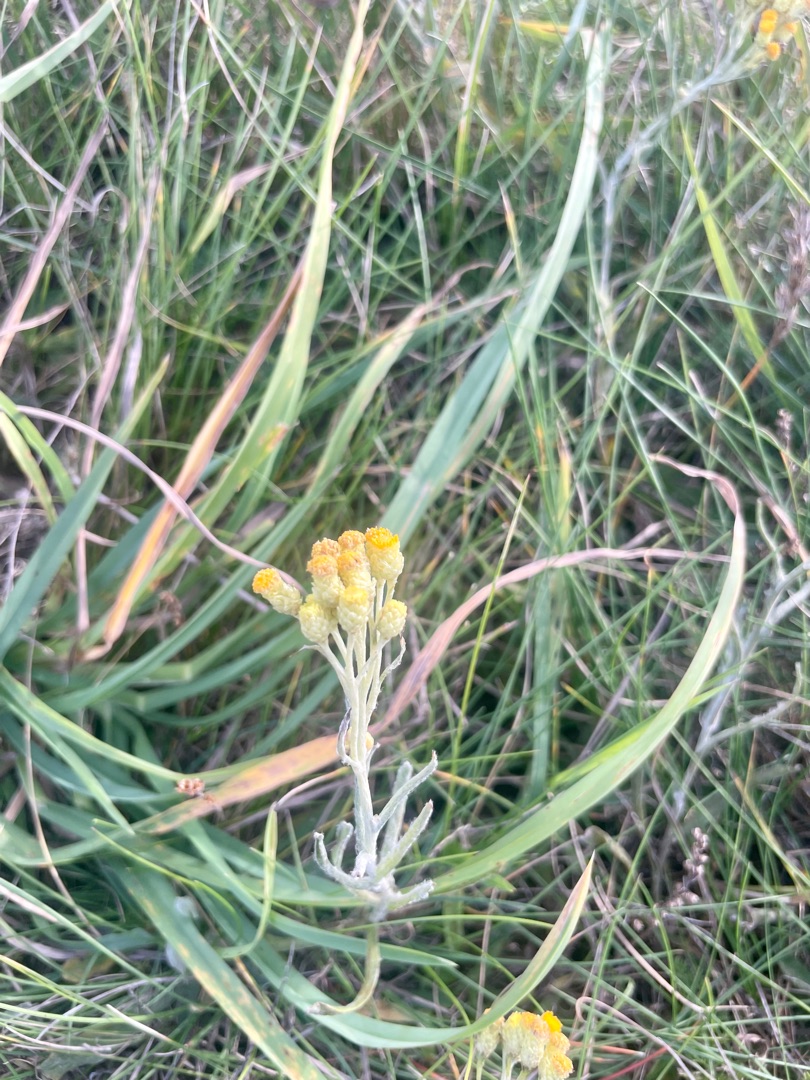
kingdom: Plantae
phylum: Tracheophyta
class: Magnoliopsida
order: Asterales
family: Asteraceae
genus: Helichrysum
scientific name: Helichrysum arenarium
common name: Gul evighedsblomst
